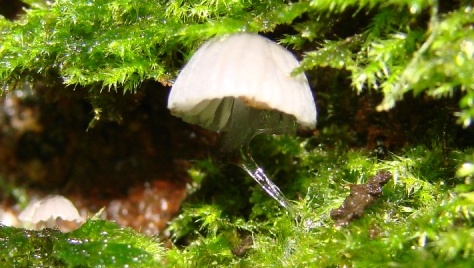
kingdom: Fungi
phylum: Basidiomycota
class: Agaricomycetes
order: Agaricales
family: Mycenaceae
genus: Mycena
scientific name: Mycena pseudocorticola
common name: gråblå bark-huesvamp
